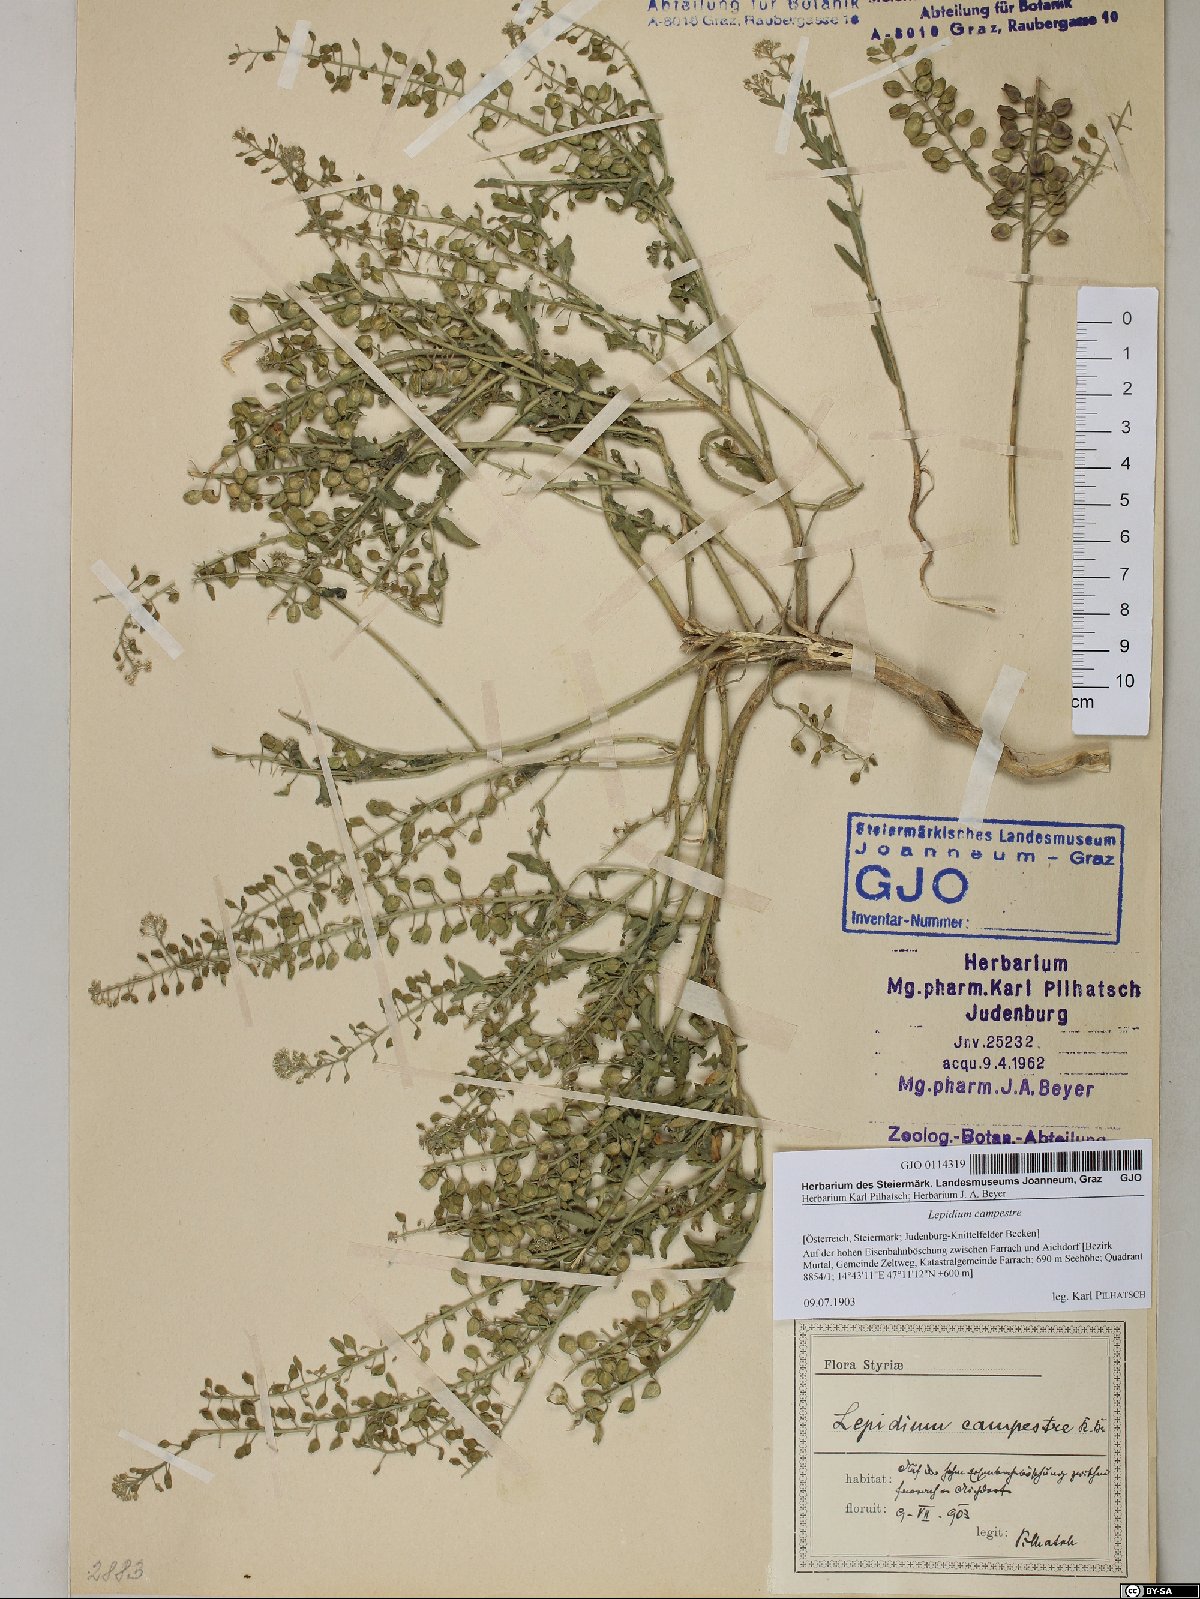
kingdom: Plantae
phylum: Tracheophyta
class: Magnoliopsida
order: Brassicales
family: Brassicaceae
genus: Lepidium
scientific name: Lepidium campestre
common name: Field pepperwort
